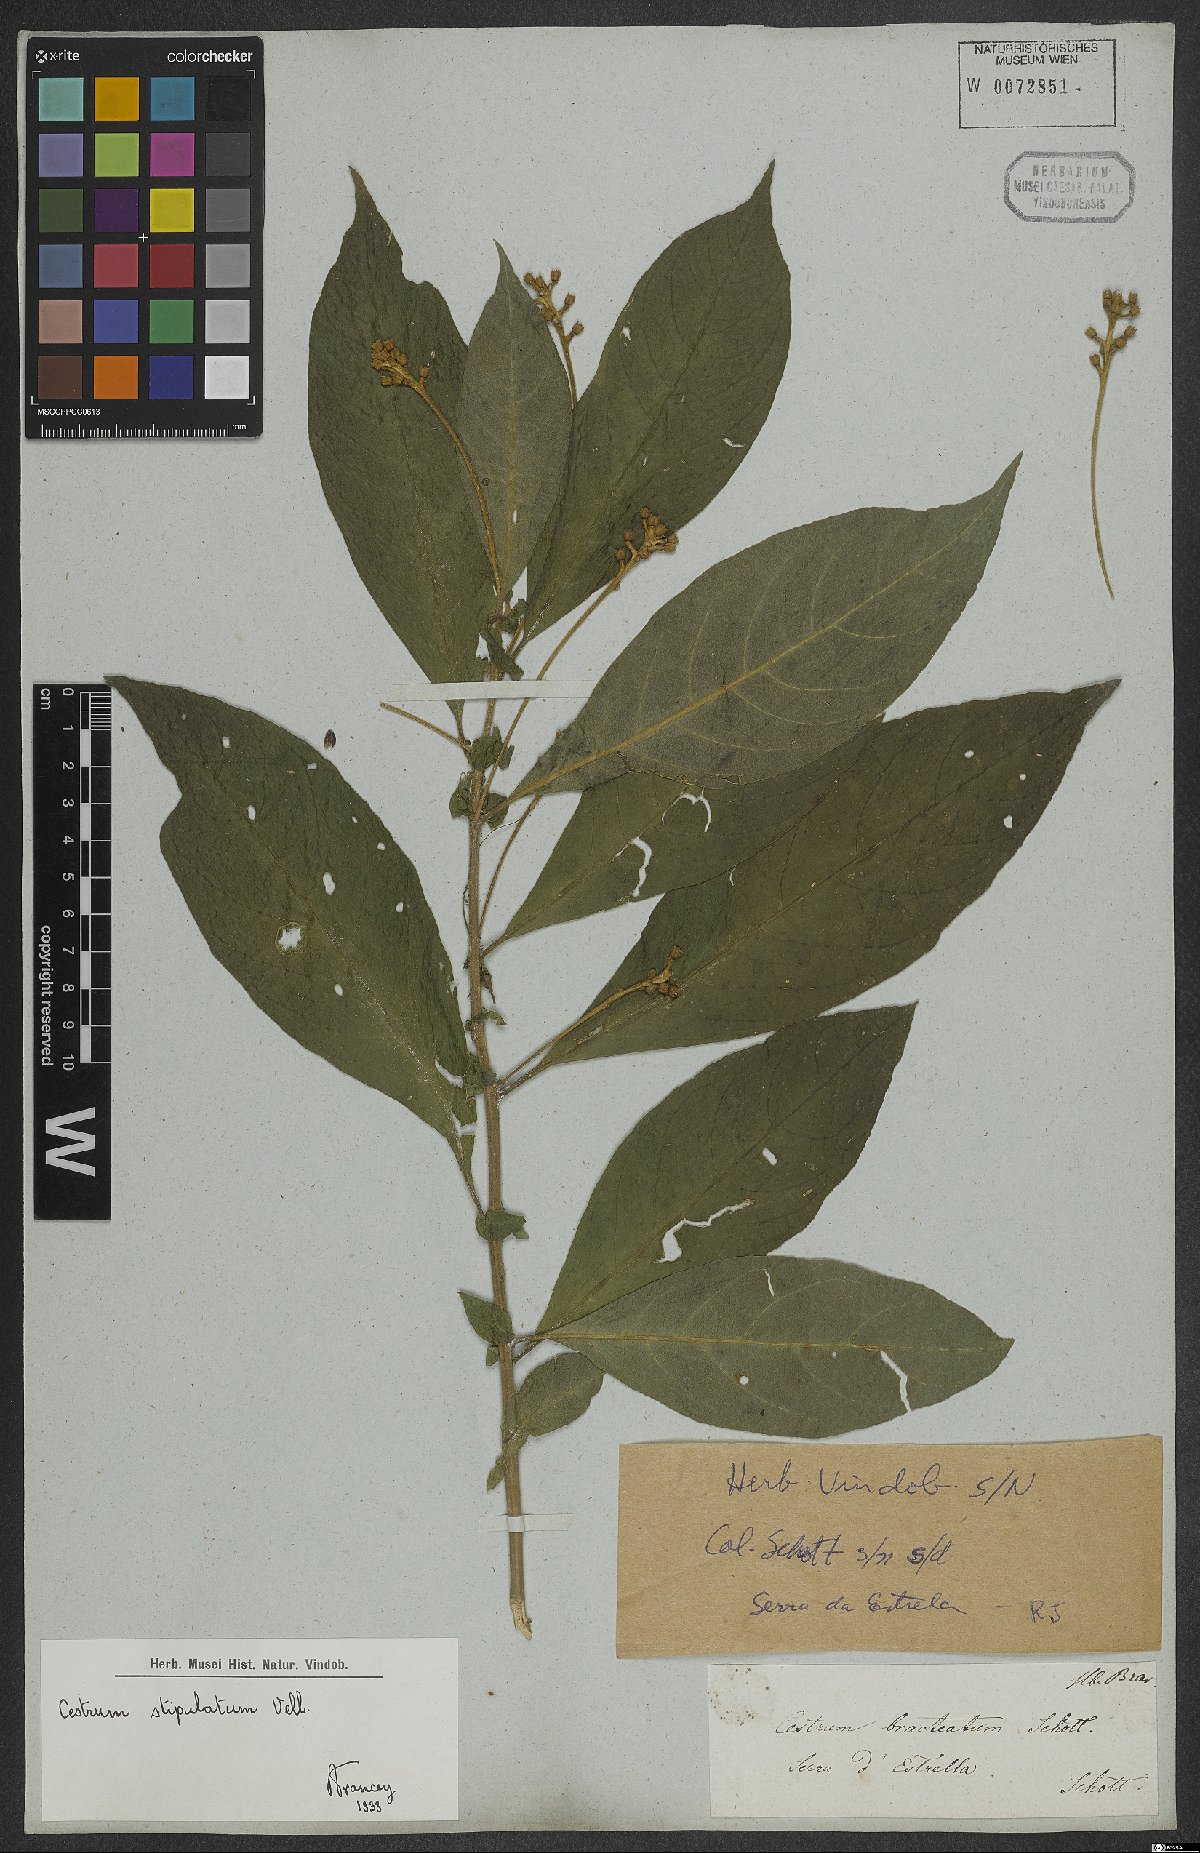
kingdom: Plantae
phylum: Tracheophyta
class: Magnoliopsida
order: Solanales
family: Solanaceae
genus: Cestrum
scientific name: Cestrum bracteatum
